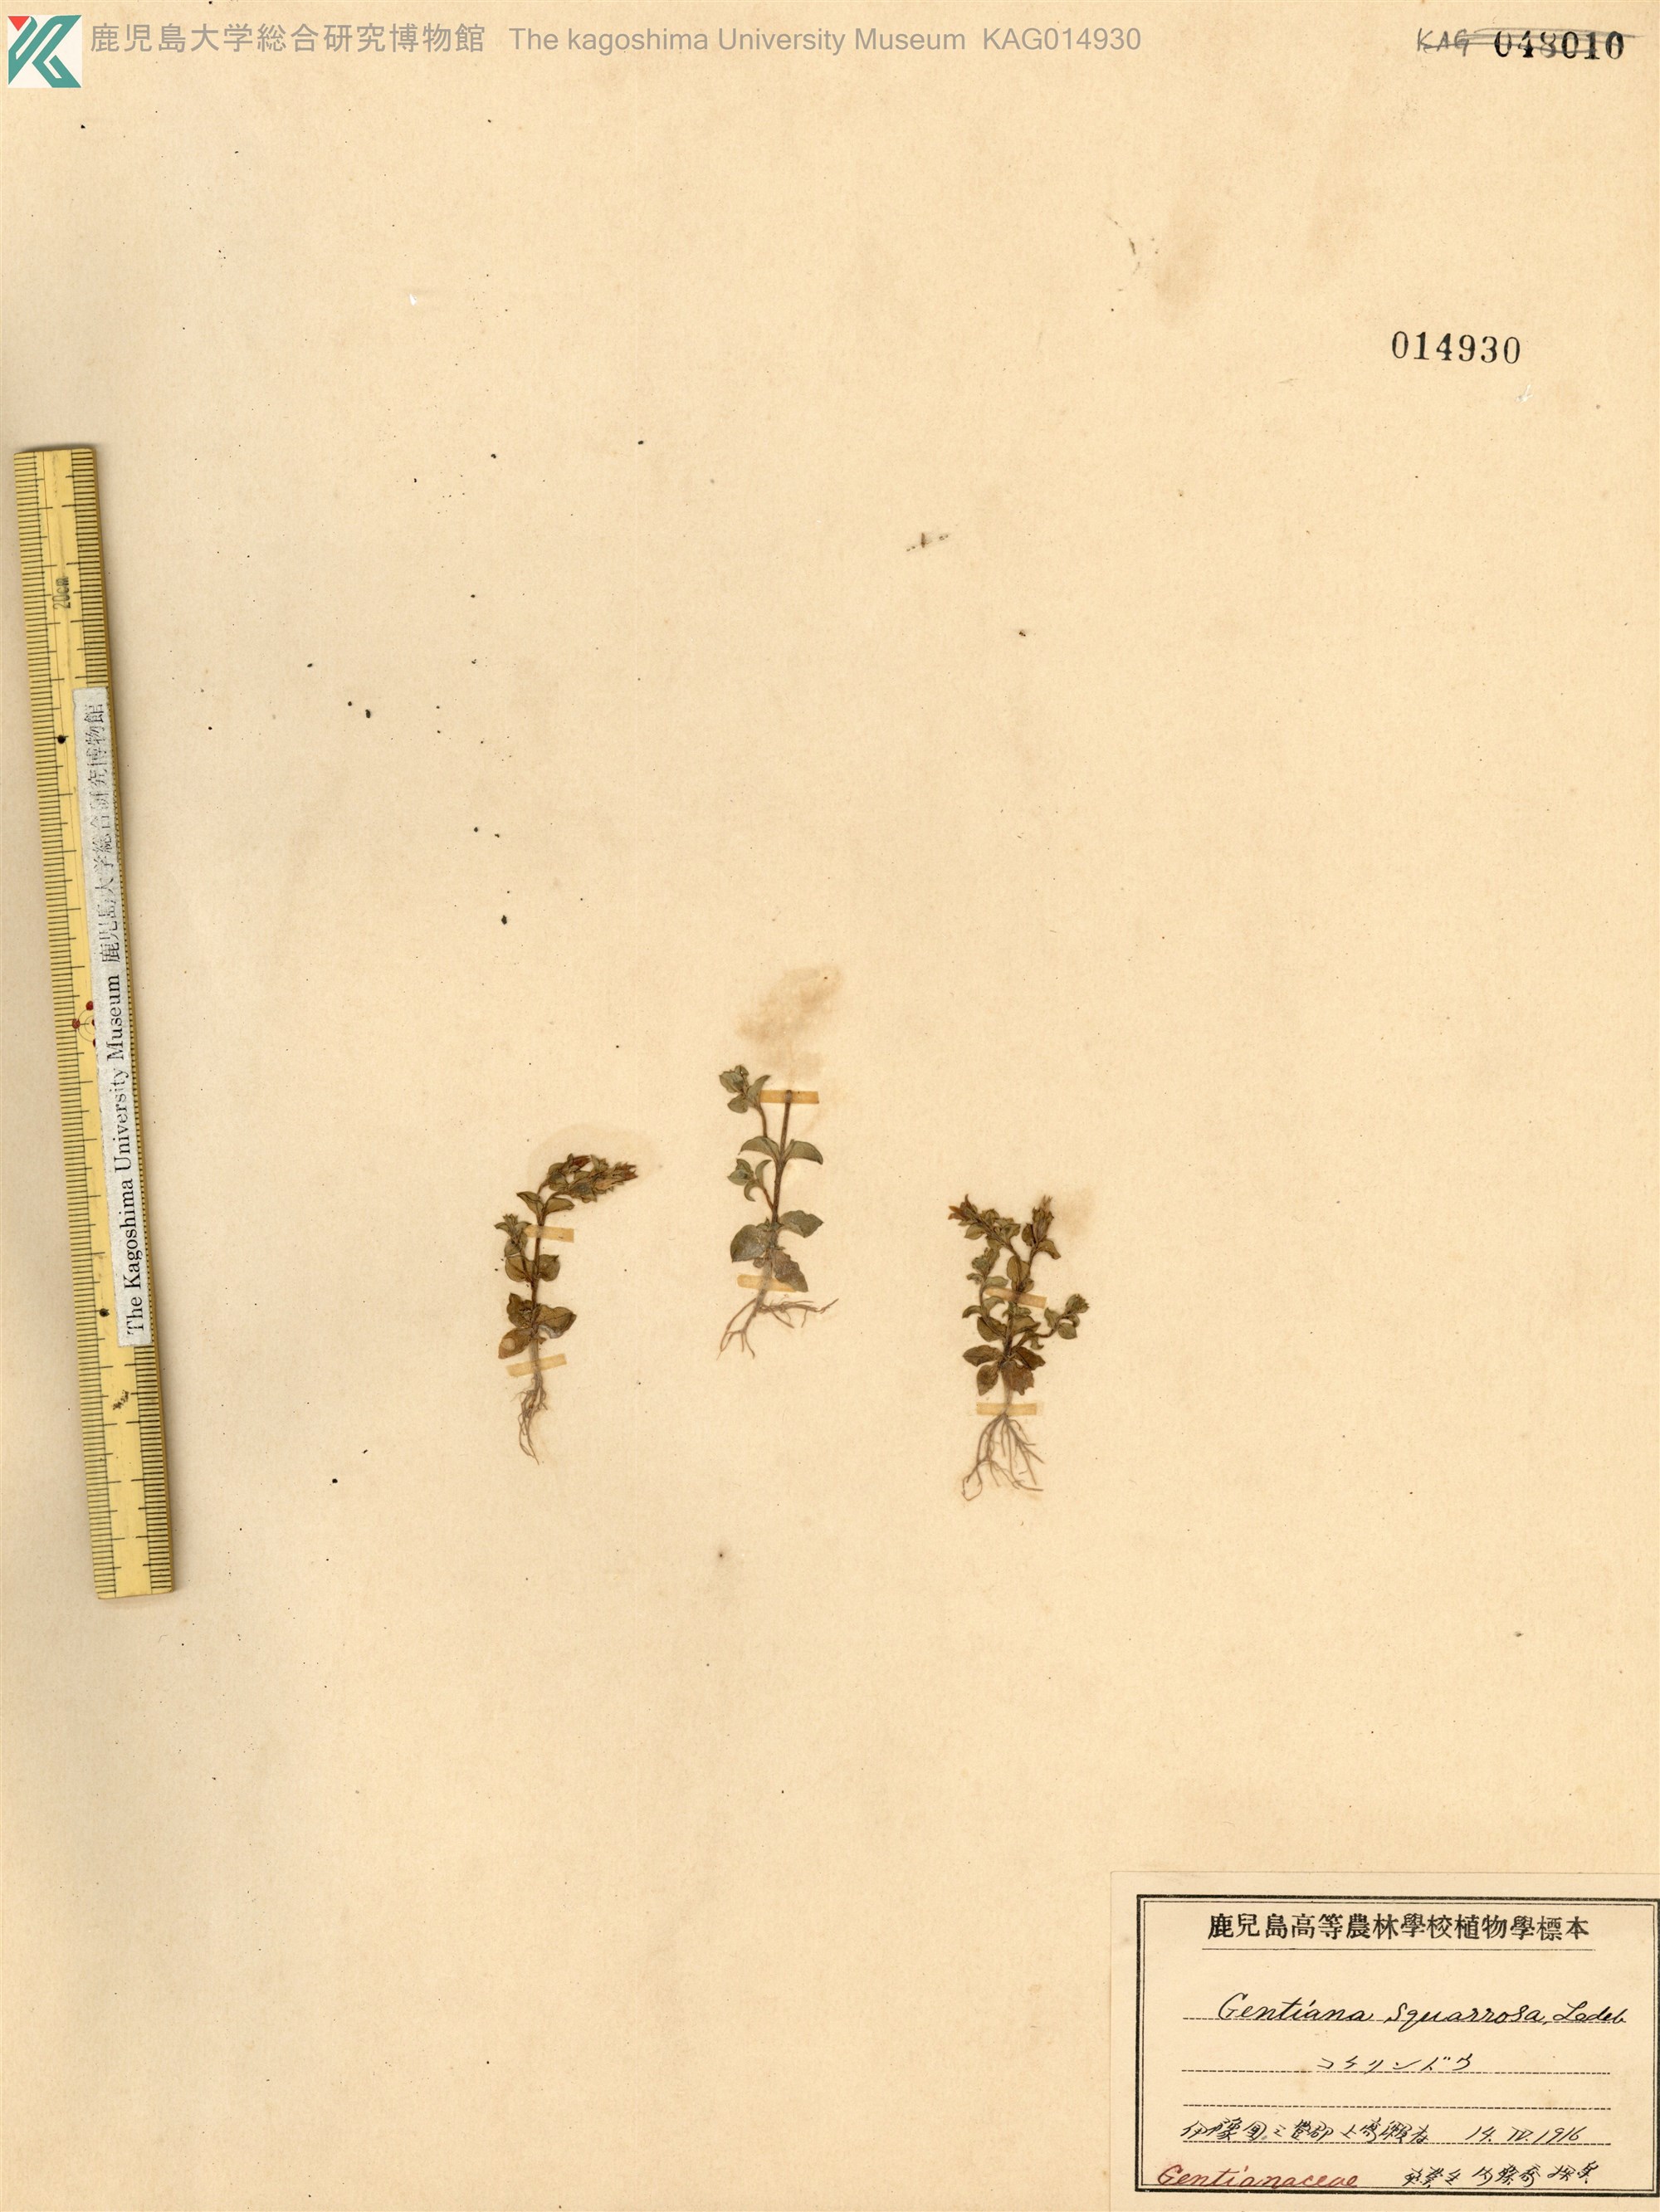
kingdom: Plantae
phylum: Tracheophyta
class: Magnoliopsida
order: Gentianales
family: Gentianaceae
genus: Gentiana
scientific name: Gentiana squarrosa
